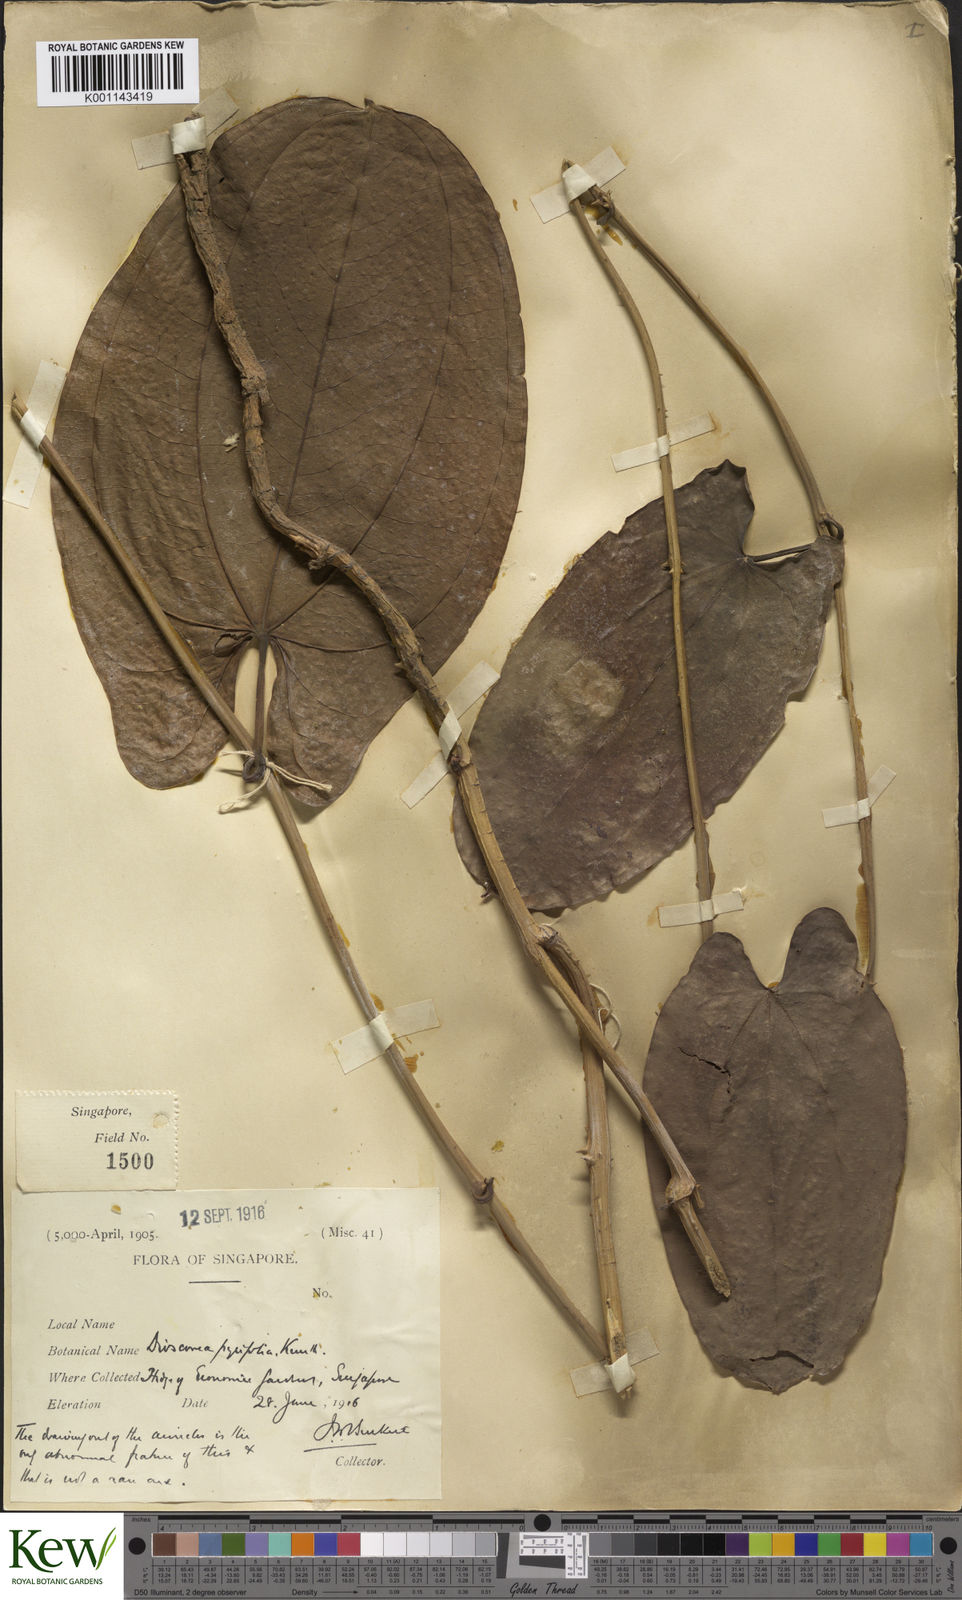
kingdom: Plantae
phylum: Tracheophyta
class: Liliopsida
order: Dioscoreales
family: Dioscoreaceae
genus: Dioscorea
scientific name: Dioscorea pyrifolia
